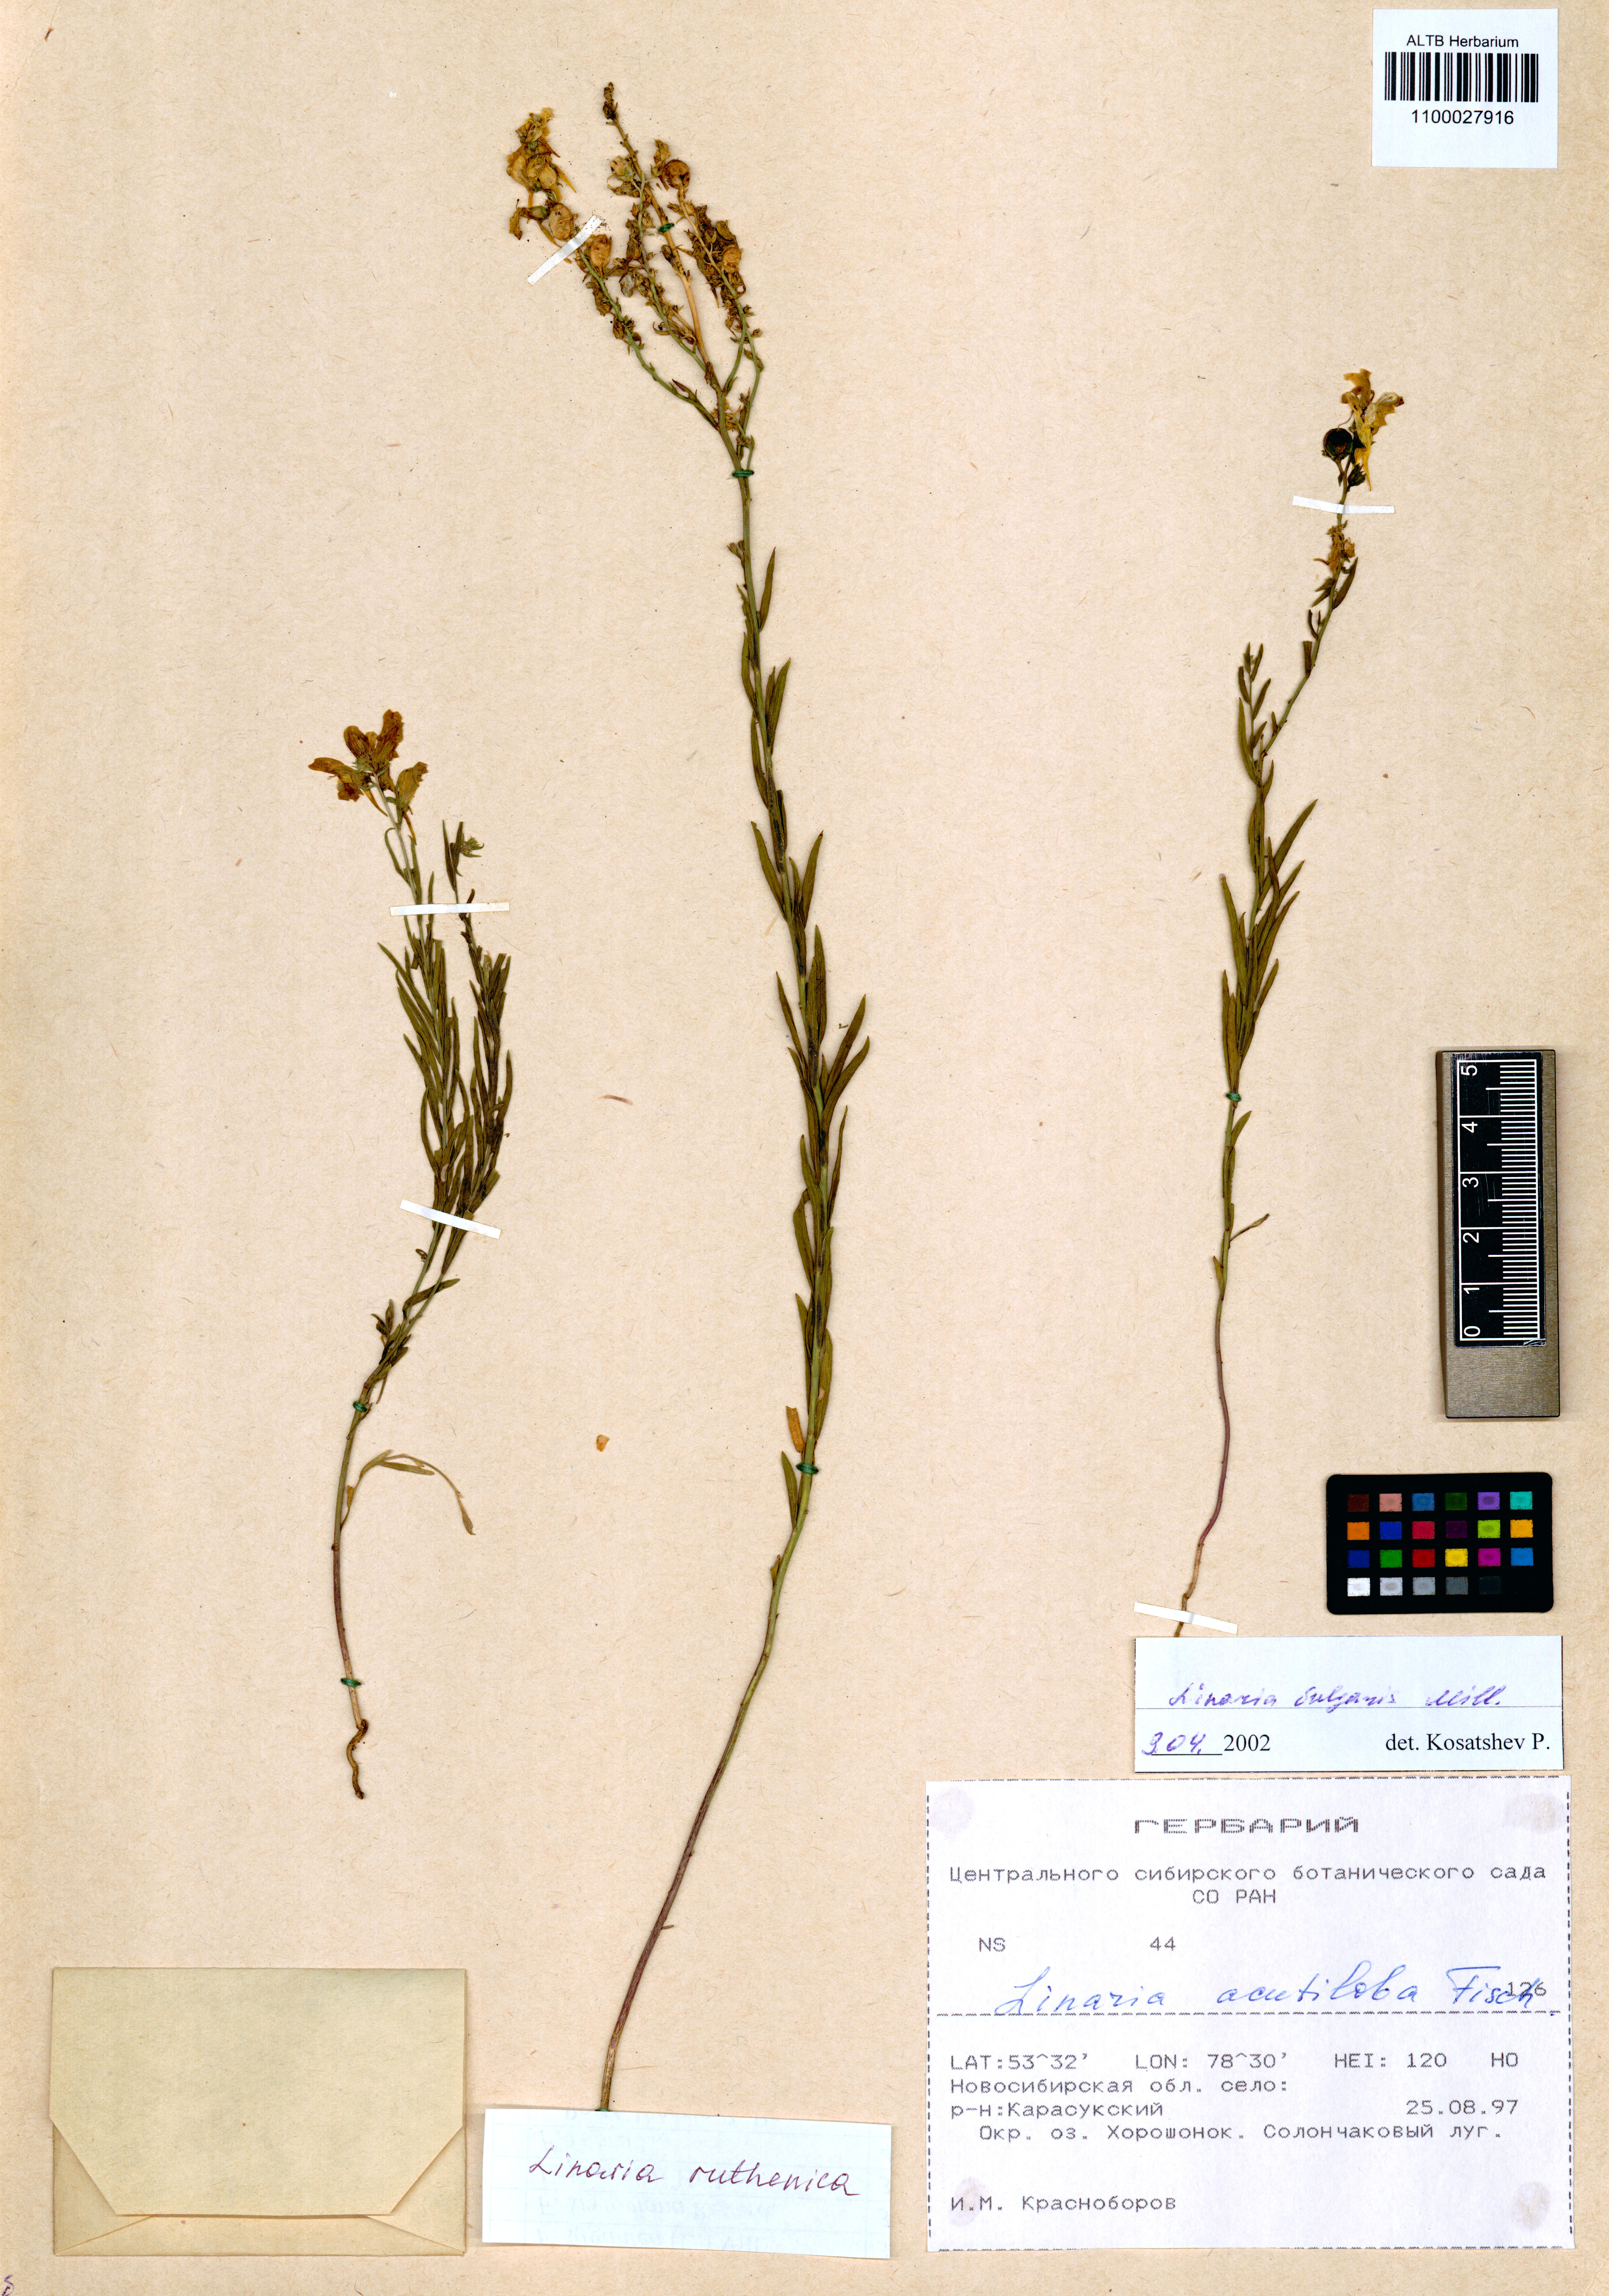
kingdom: Plantae
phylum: Tracheophyta
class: Magnoliopsida
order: Lamiales
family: Plantaginaceae
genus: Linaria
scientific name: Linaria biebersteinii
